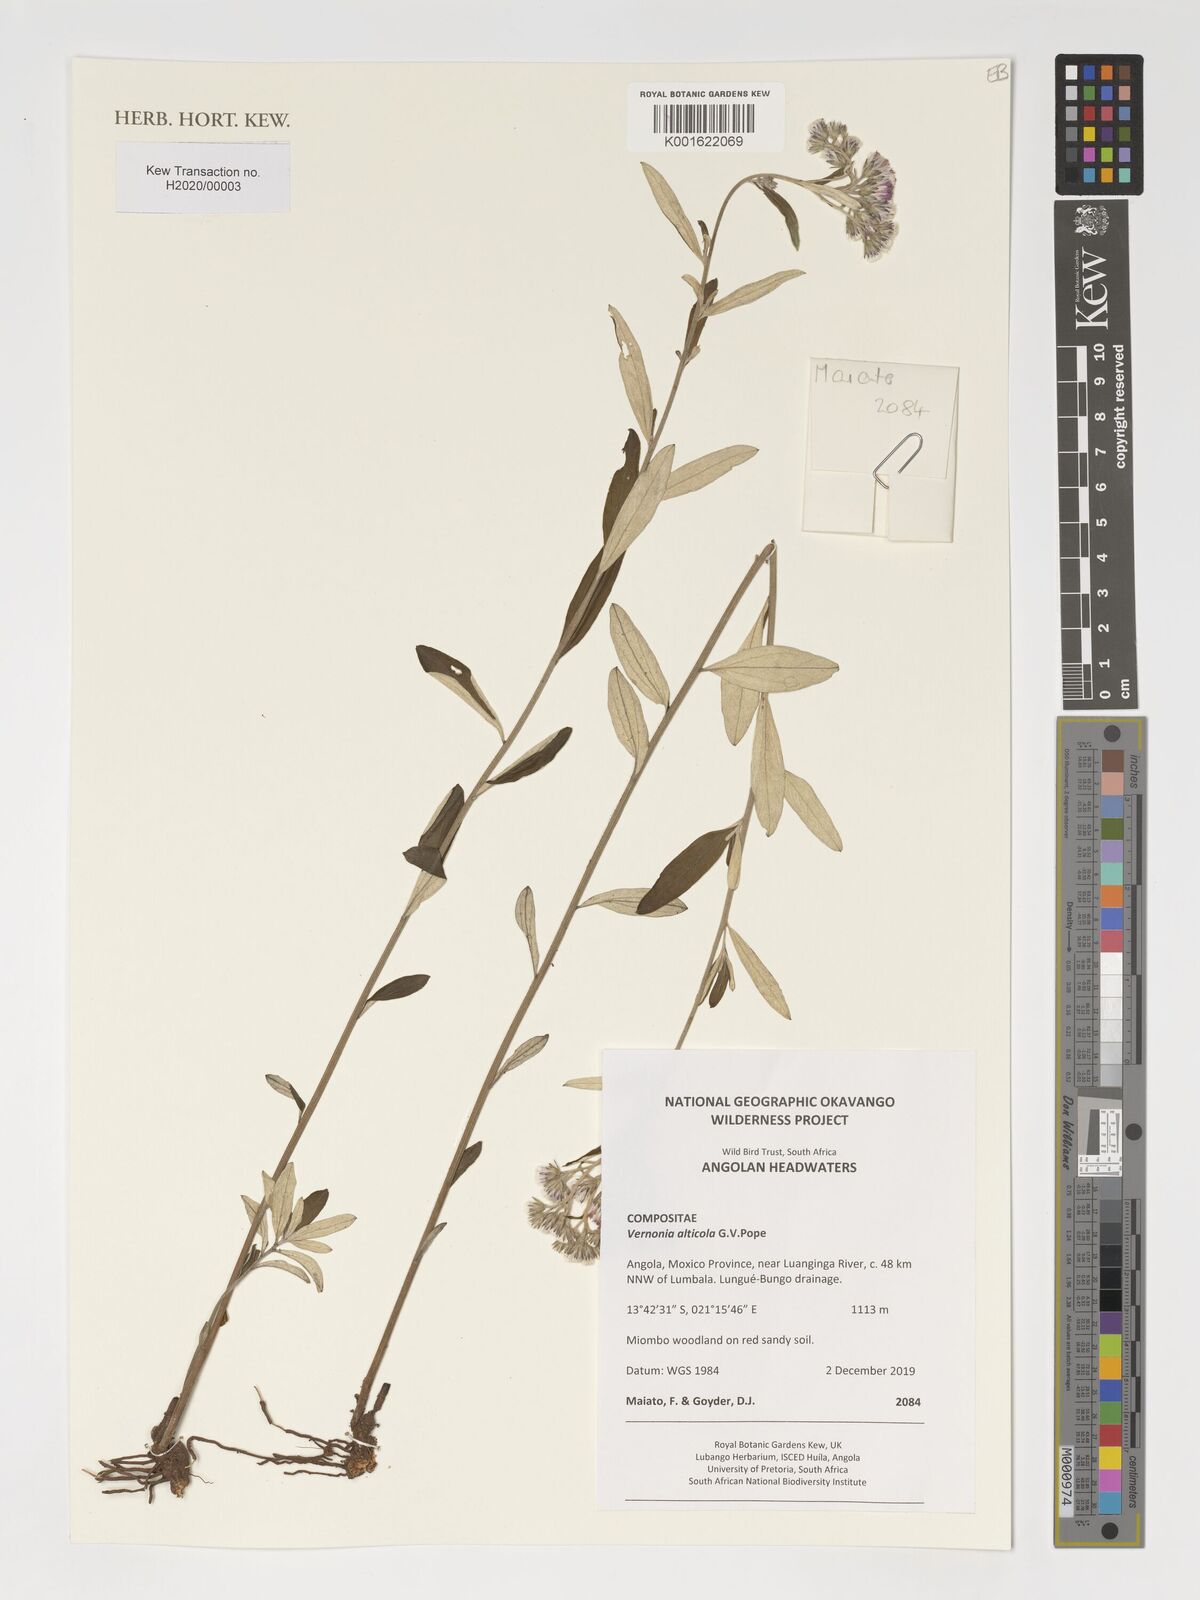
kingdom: Plantae
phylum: Tracheophyta
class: Magnoliopsida
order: Asterales
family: Asteraceae
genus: Vernonia
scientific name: Vernonia alticola
